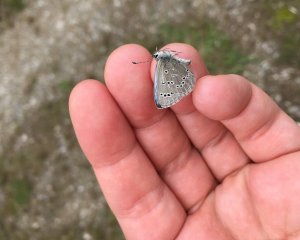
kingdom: Animalia
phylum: Arthropoda
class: Insecta
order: Lepidoptera
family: Lycaenidae
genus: Glaucopsyche
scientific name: Glaucopsyche lygdamus
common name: Silvery Blue
